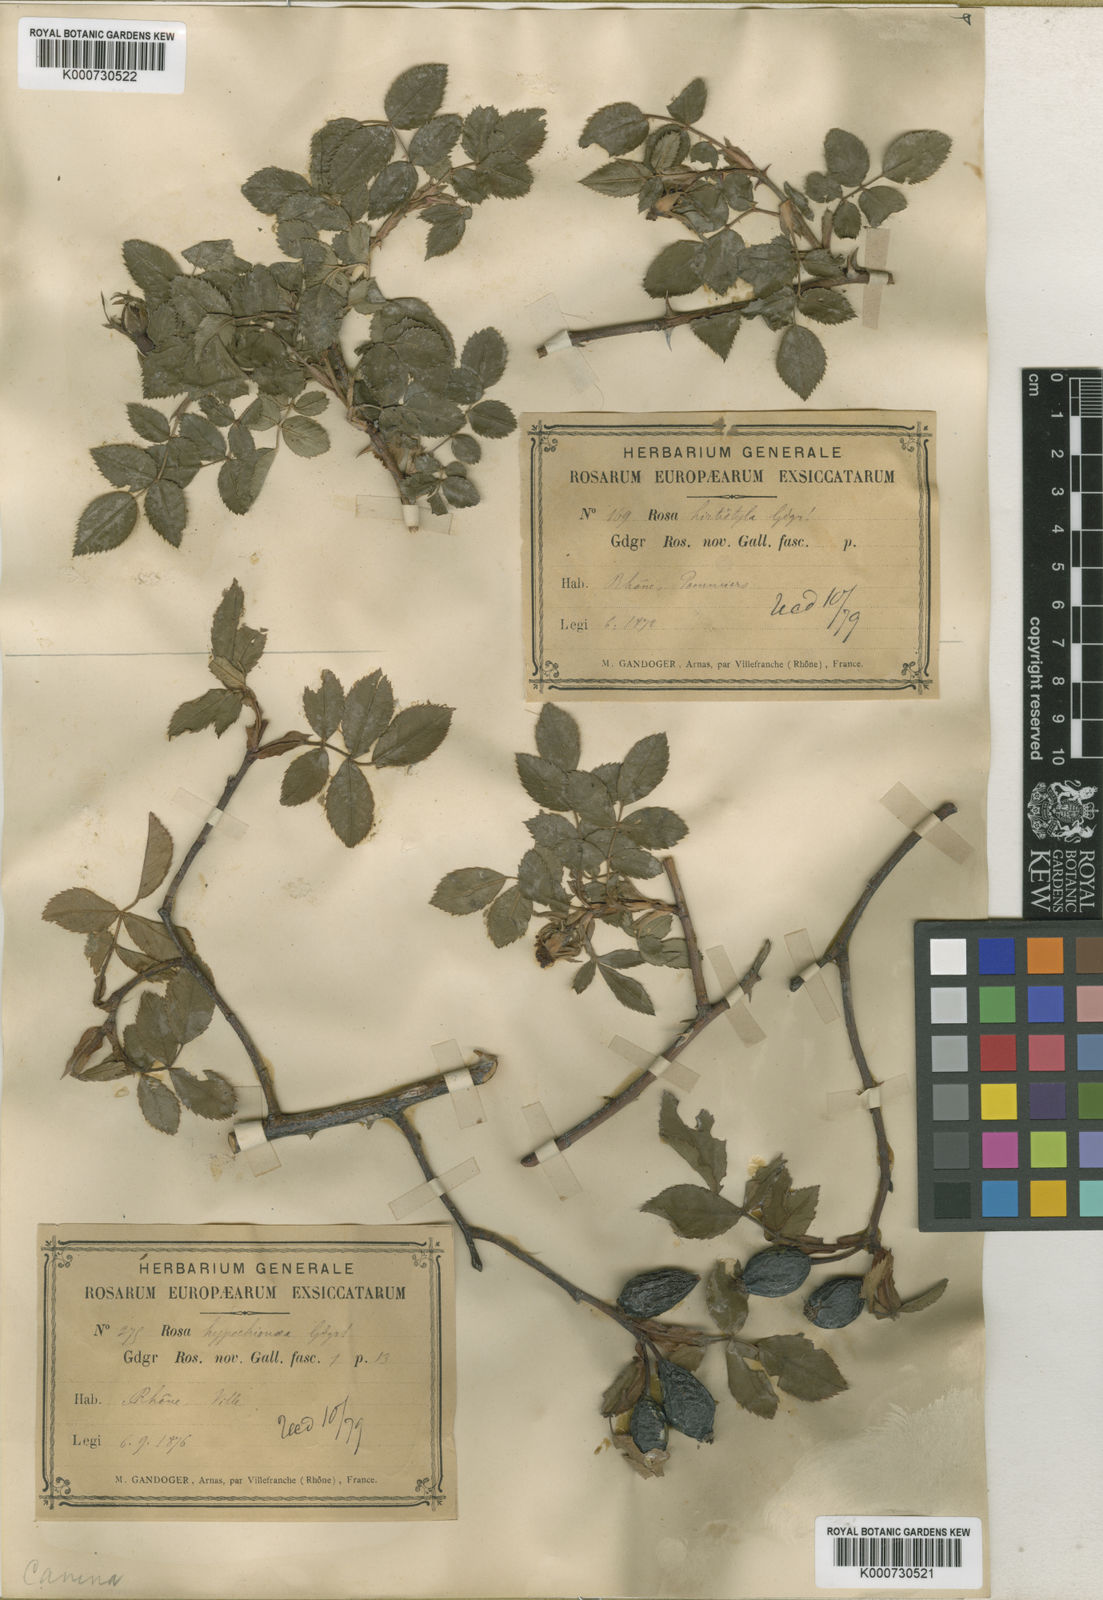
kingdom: Plantae
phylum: Tracheophyta
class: Magnoliopsida
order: Rosales
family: Rosaceae
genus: Rosa
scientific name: Rosa canina
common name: Dog rose
